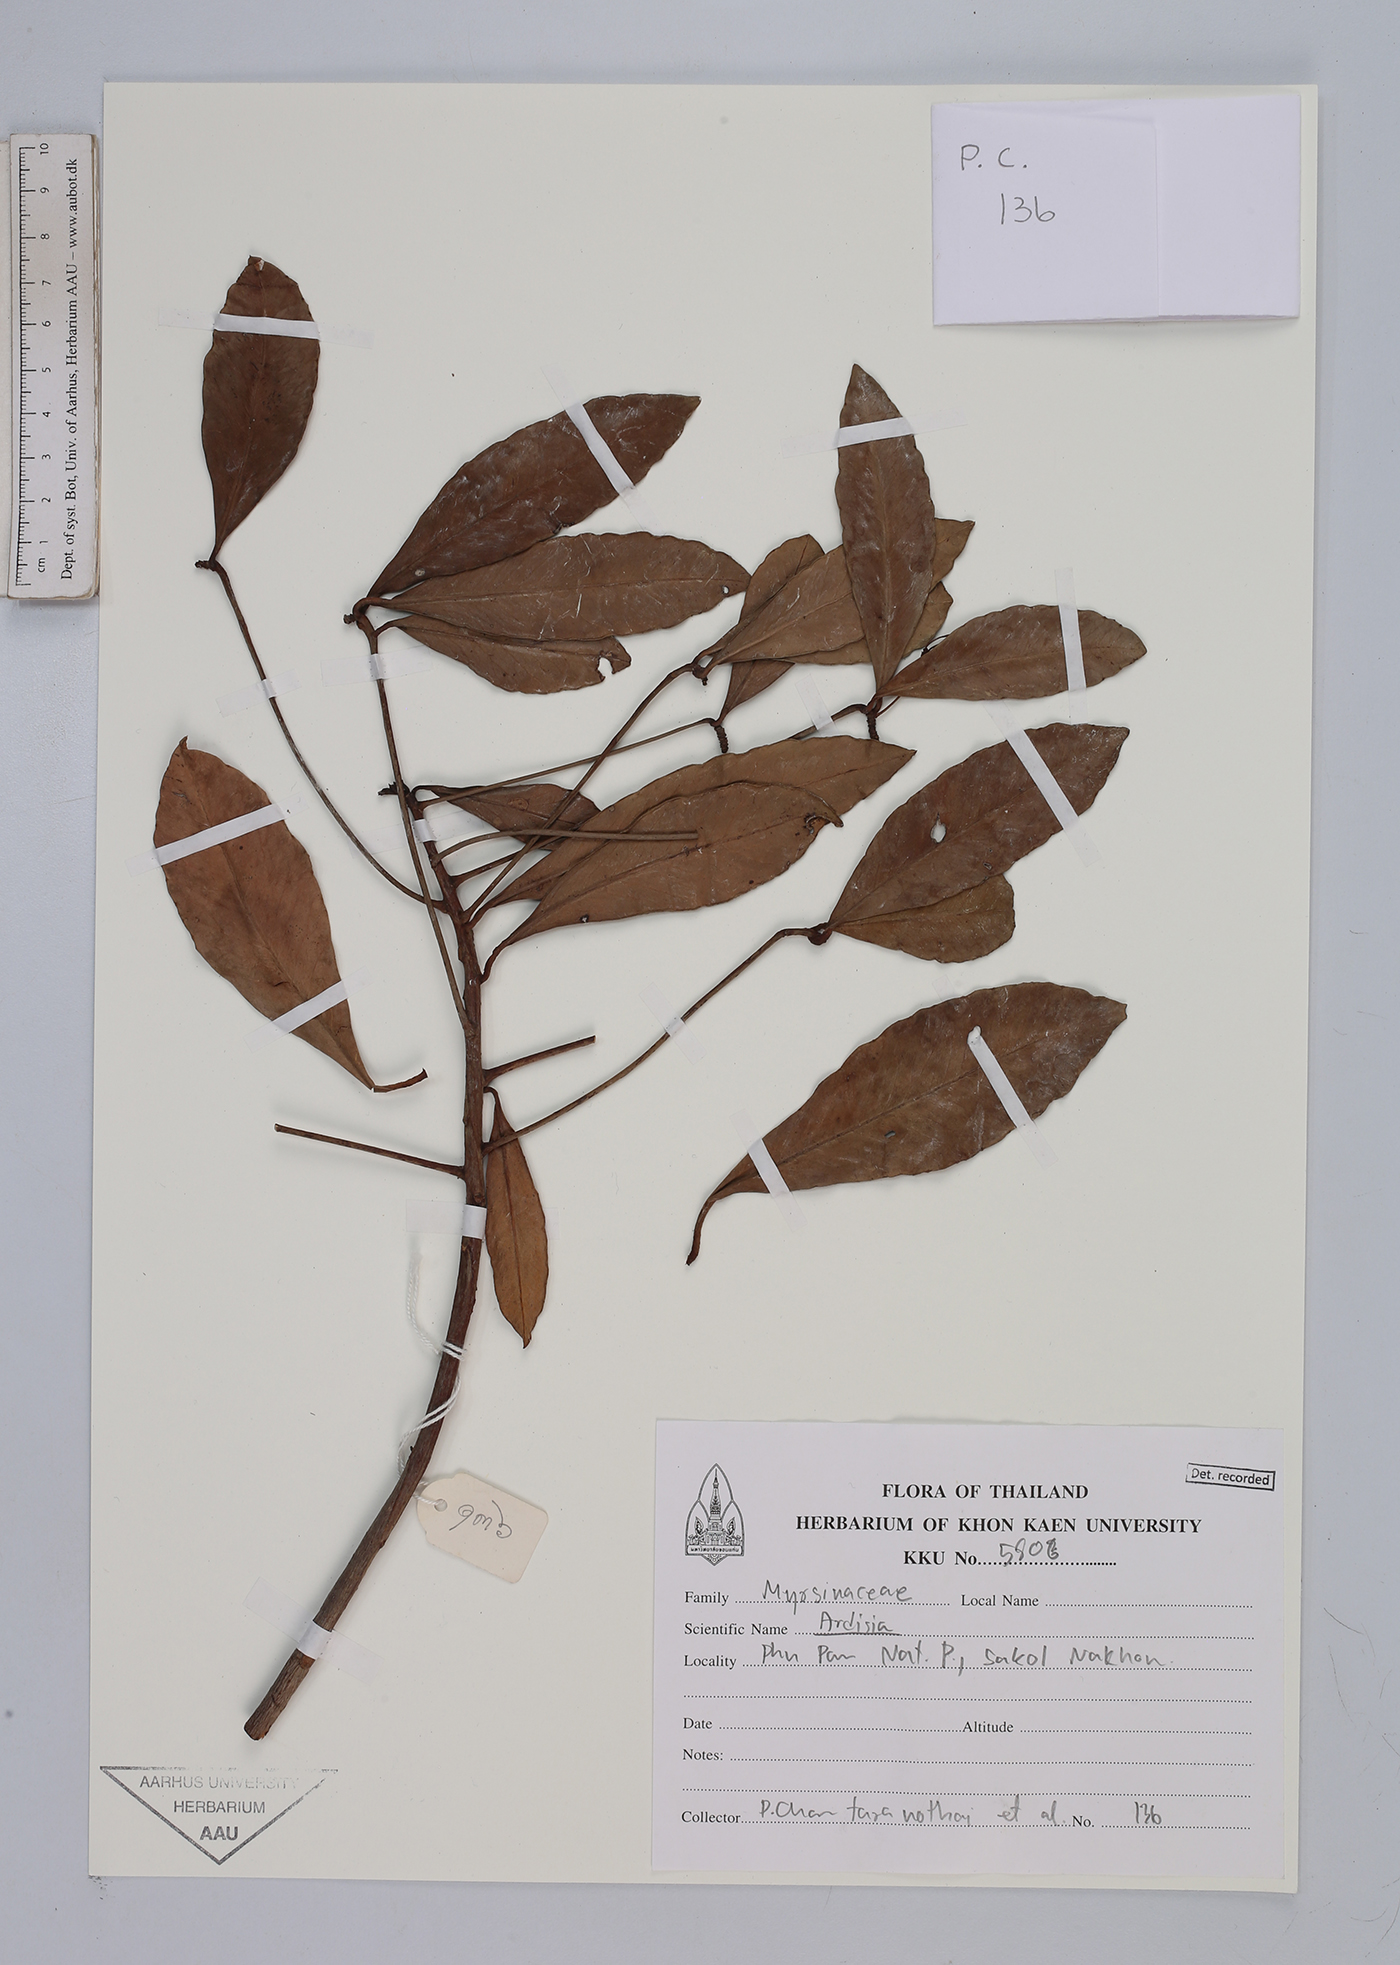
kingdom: Plantae
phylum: Tracheophyta
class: Magnoliopsida
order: Ericales
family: Primulaceae
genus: Ardisia
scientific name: Ardisia
